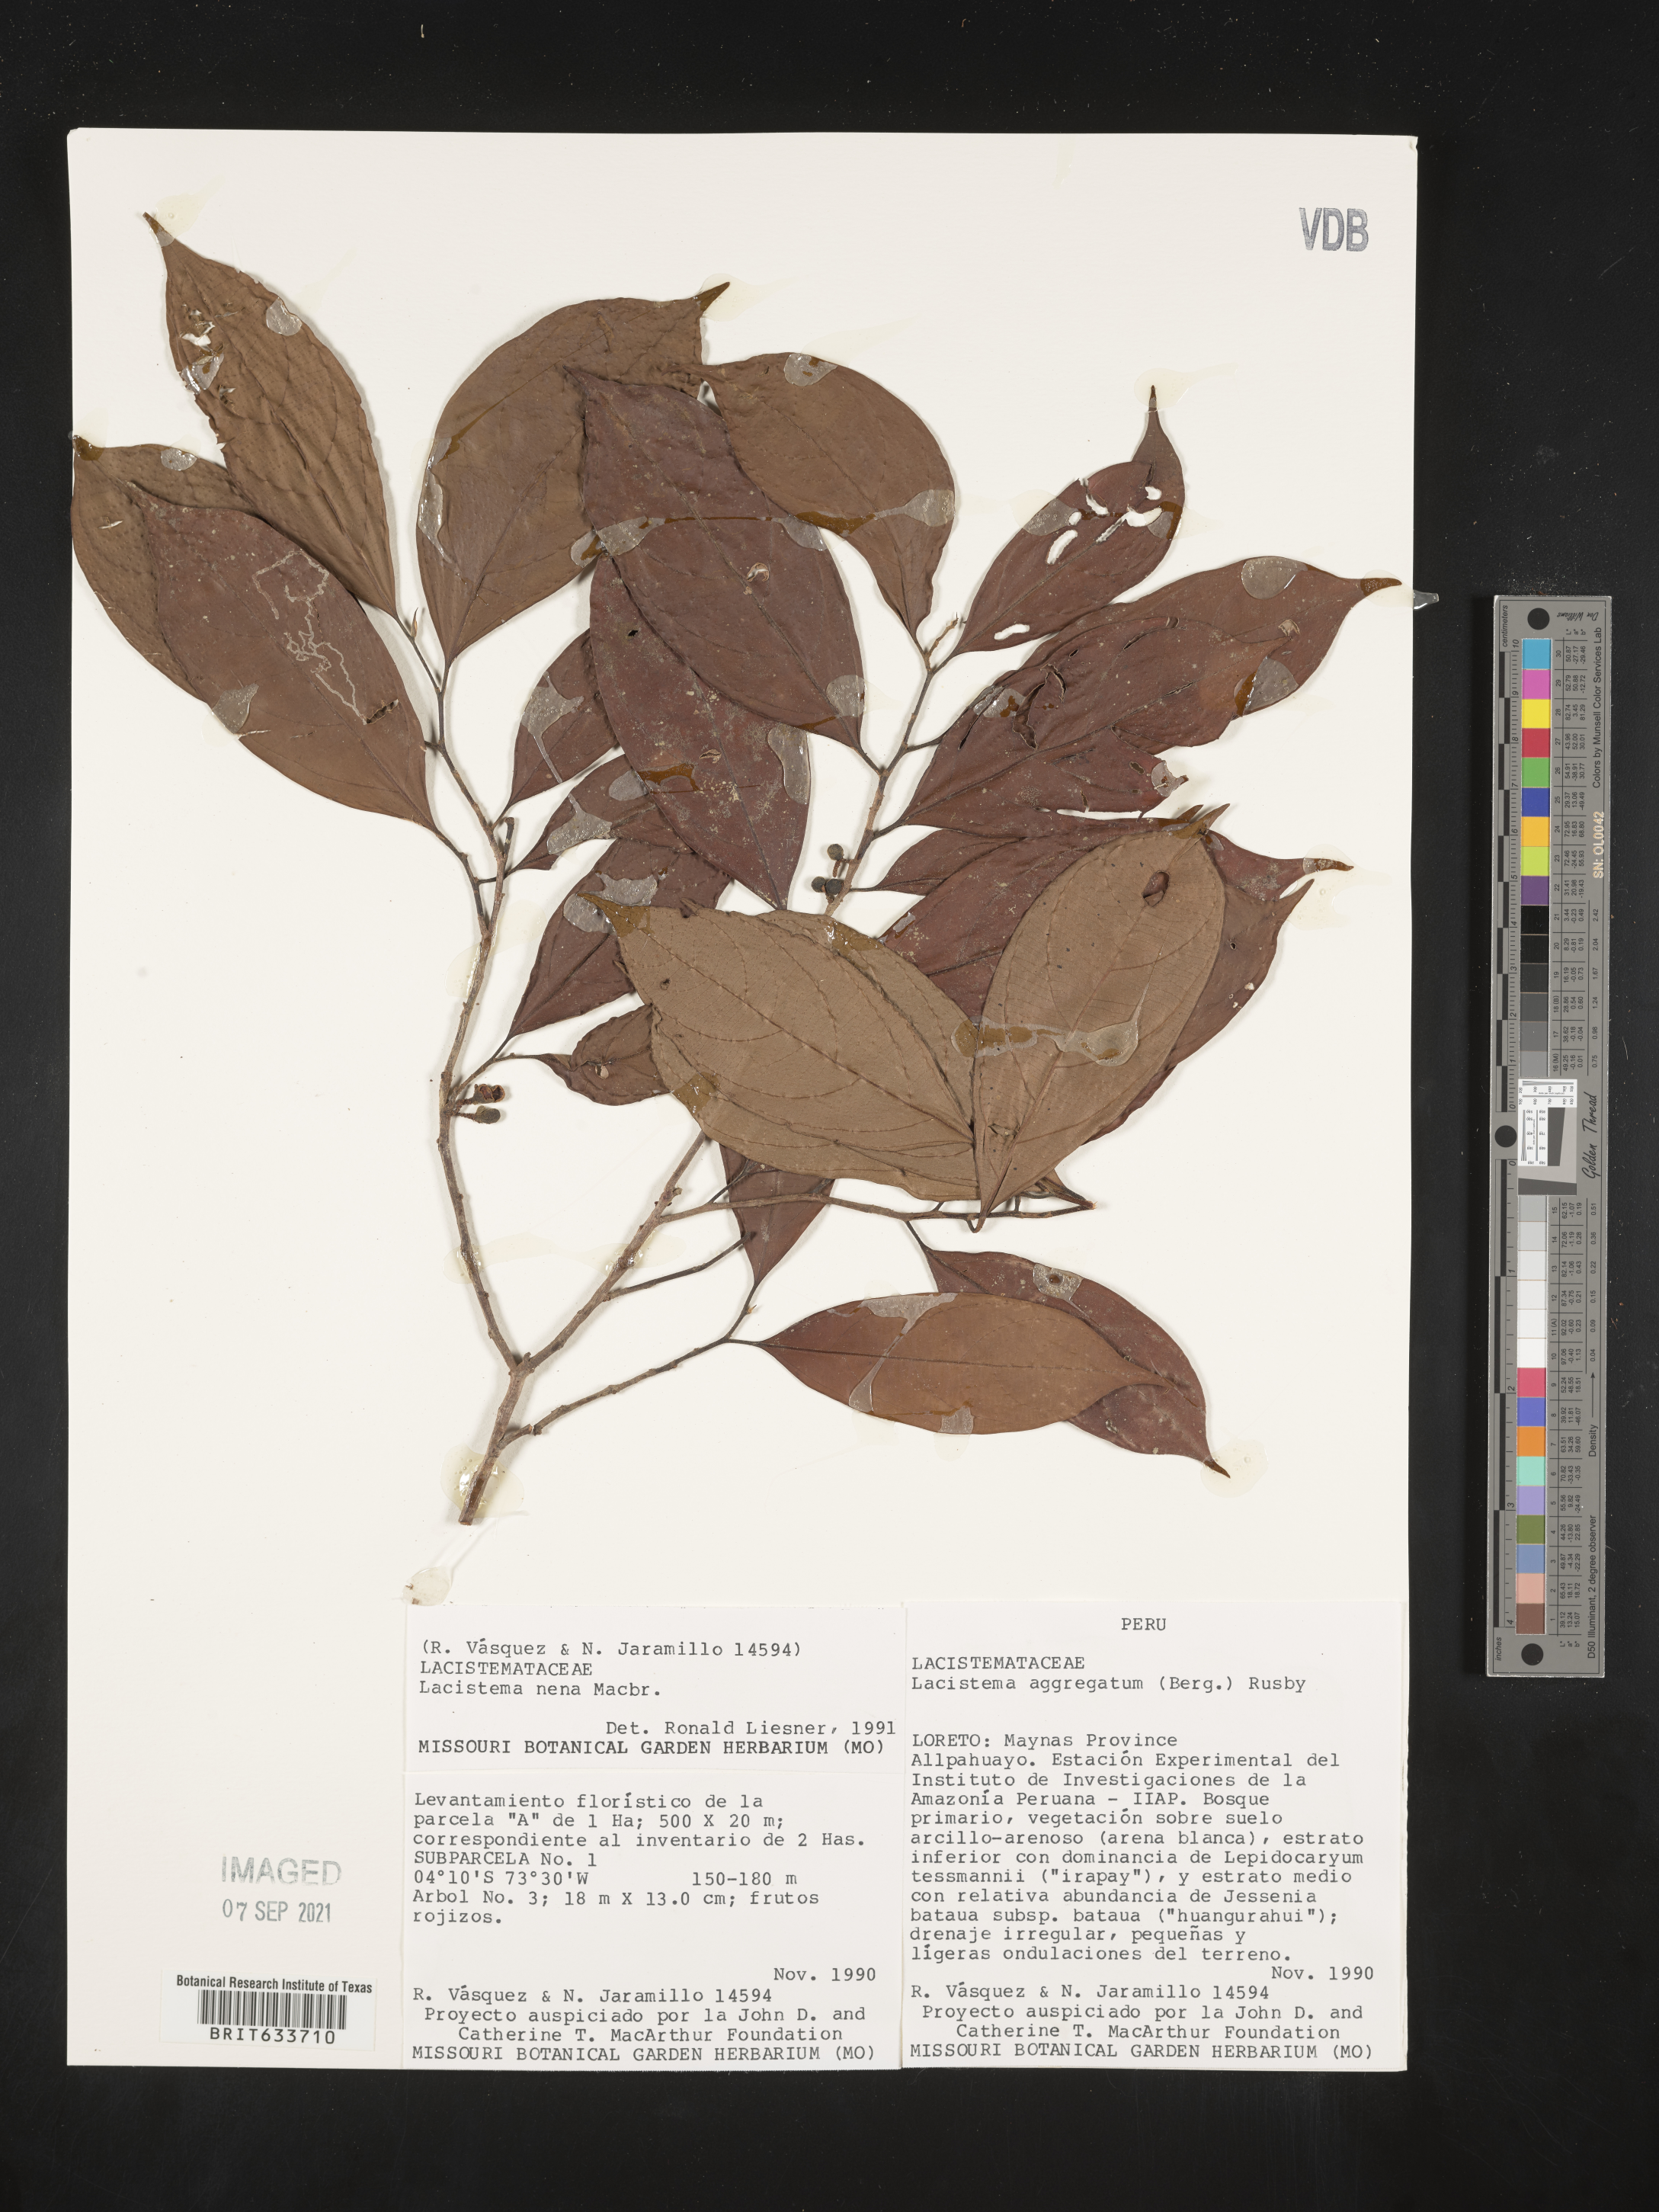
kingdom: Plantae
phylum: Tracheophyta
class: Magnoliopsida
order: Malpighiales
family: Lacistemataceae
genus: Lacistema
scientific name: Lacistema
